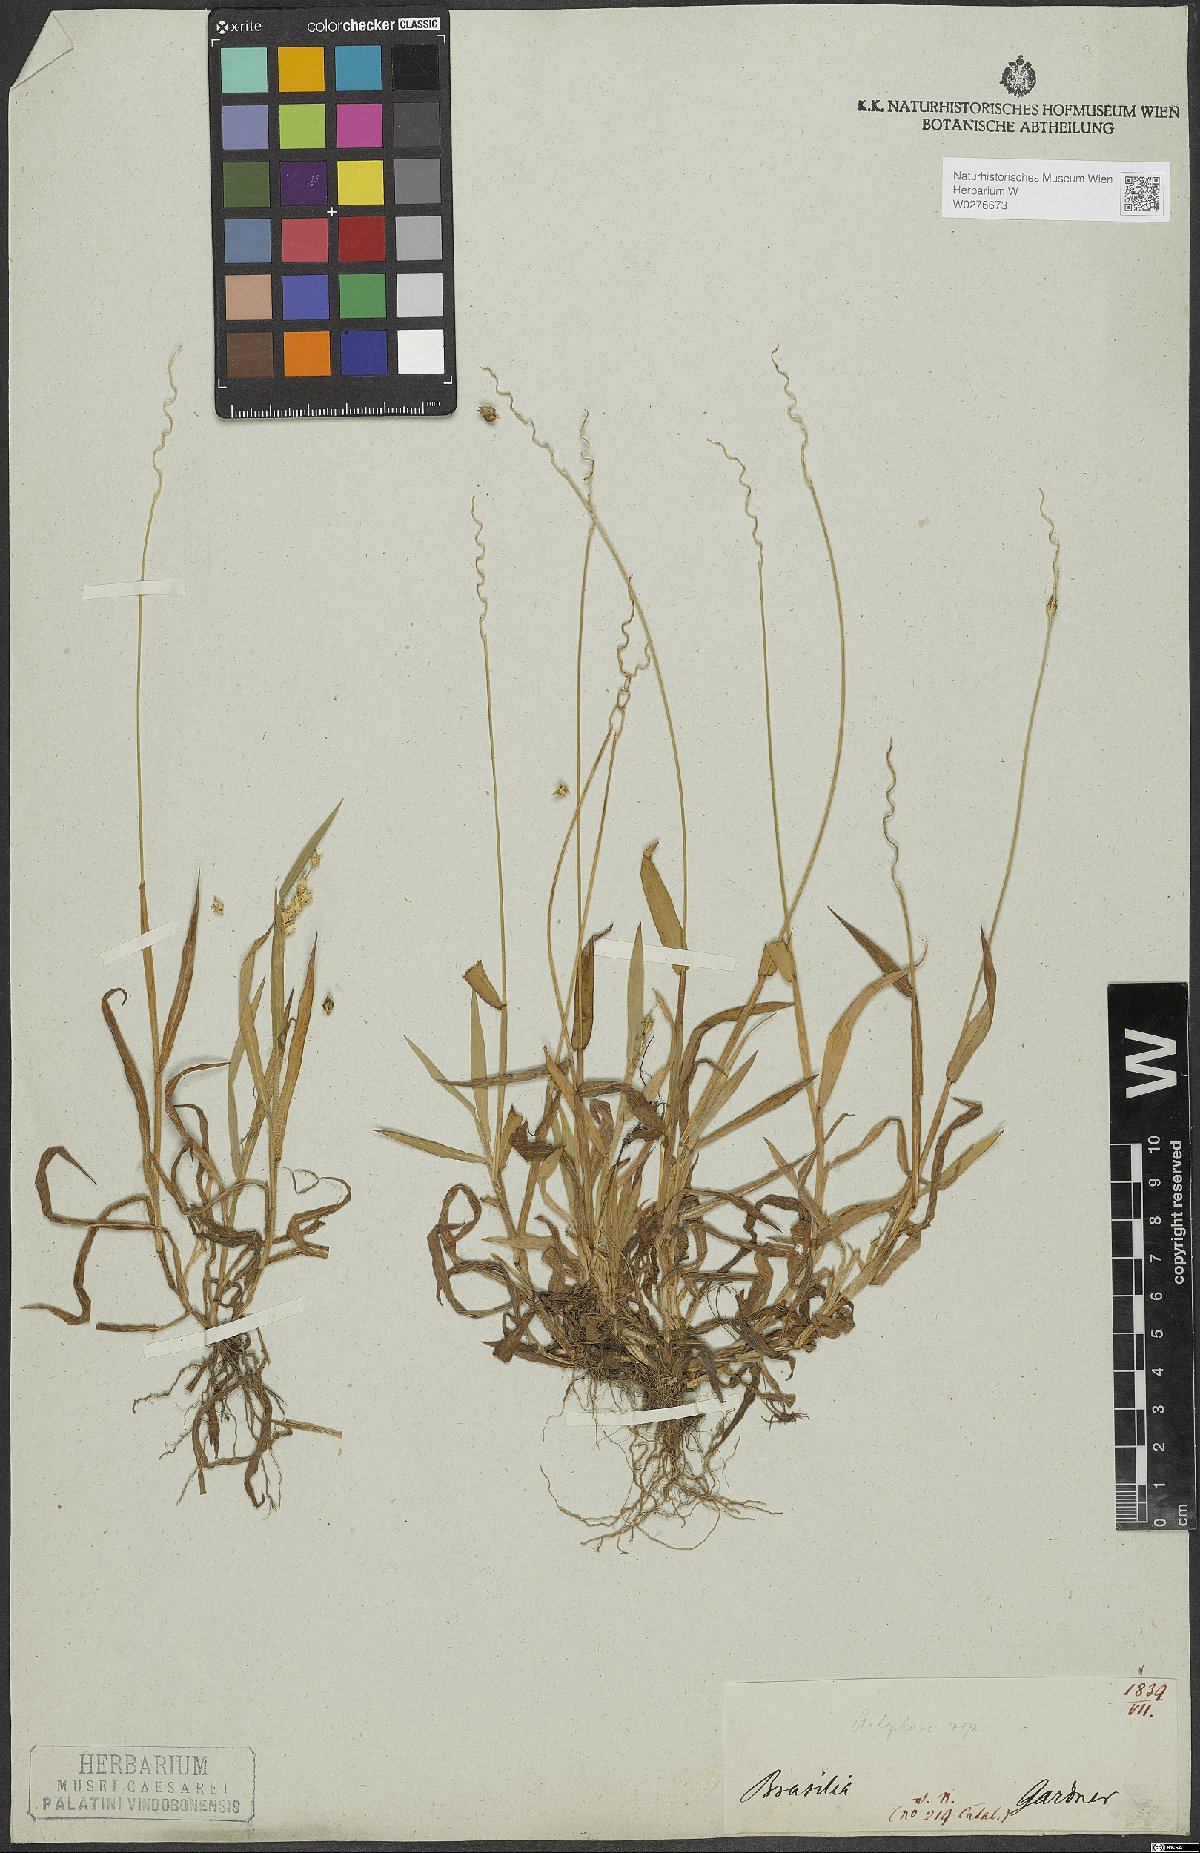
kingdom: Plantae
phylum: Tracheophyta
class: Liliopsida
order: Poales
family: Poaceae
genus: Anthephora
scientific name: Anthephora cristata
